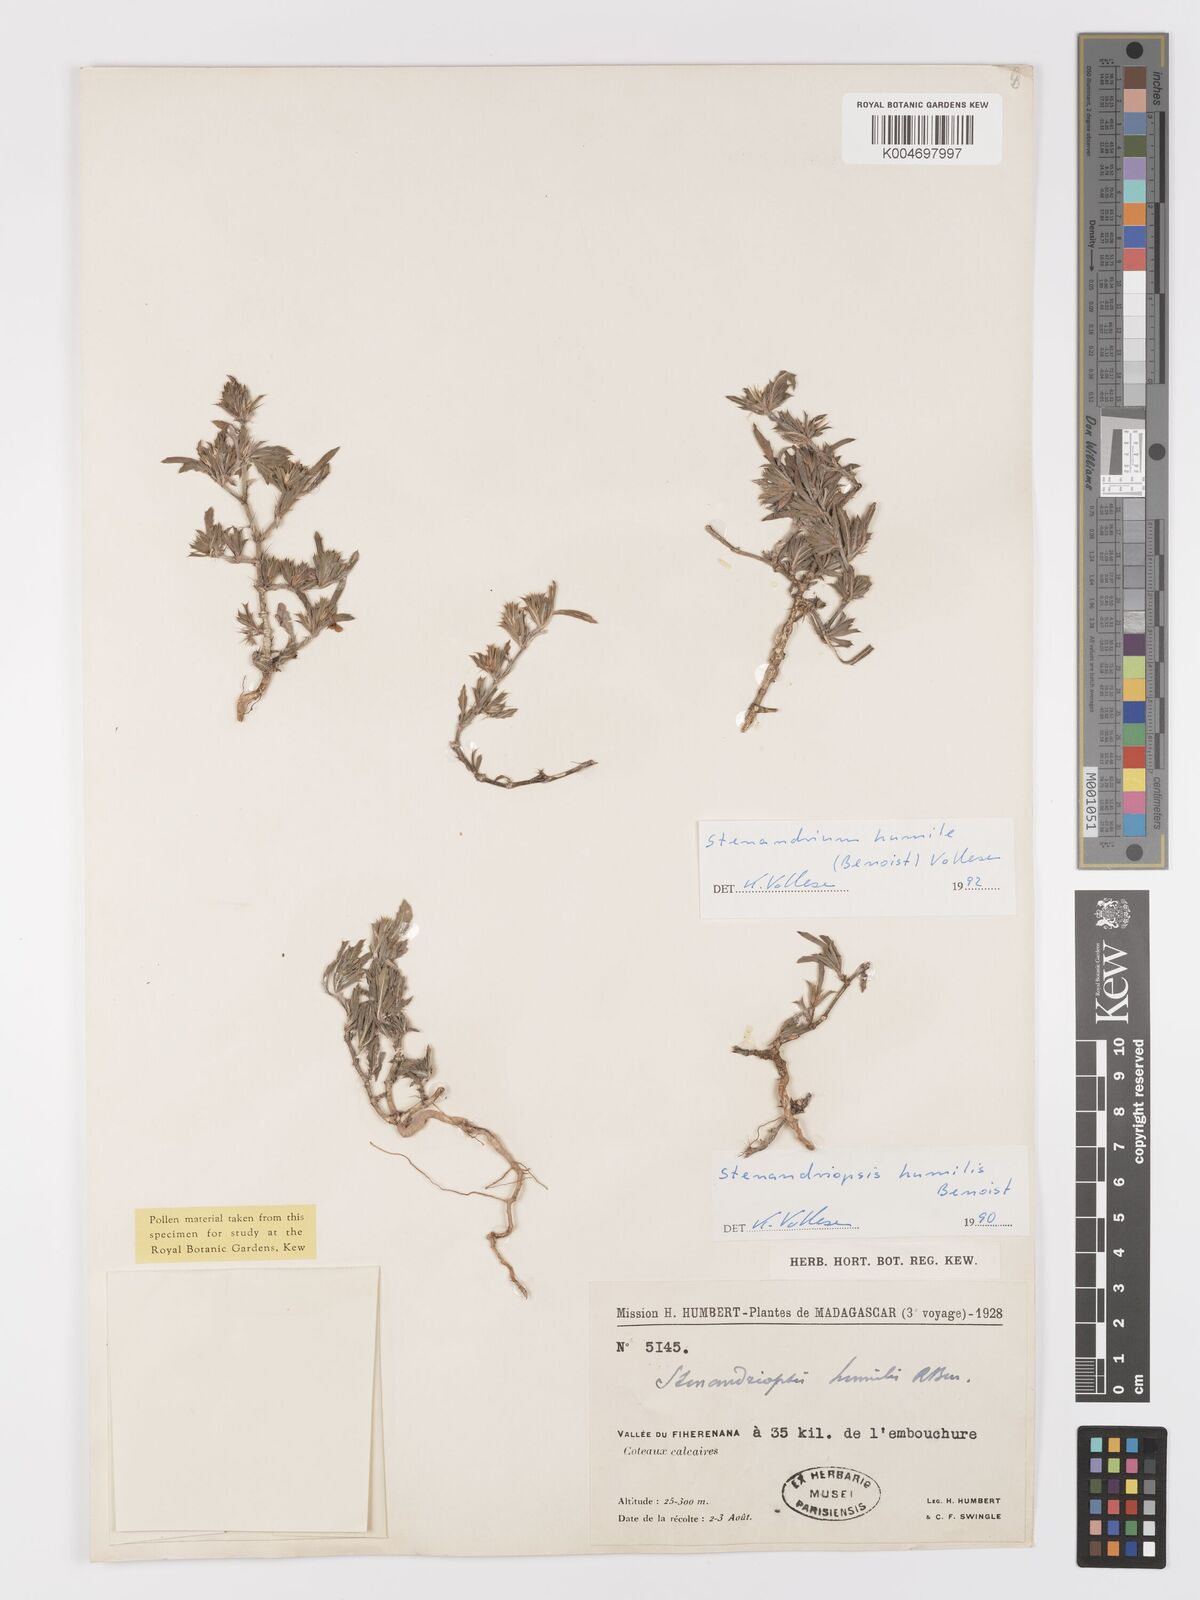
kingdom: Plantae
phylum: Tracheophyta
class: Magnoliopsida
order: Lamiales
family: Acanthaceae
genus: Stenandriopsis
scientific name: Stenandriopsis keraudrenae
